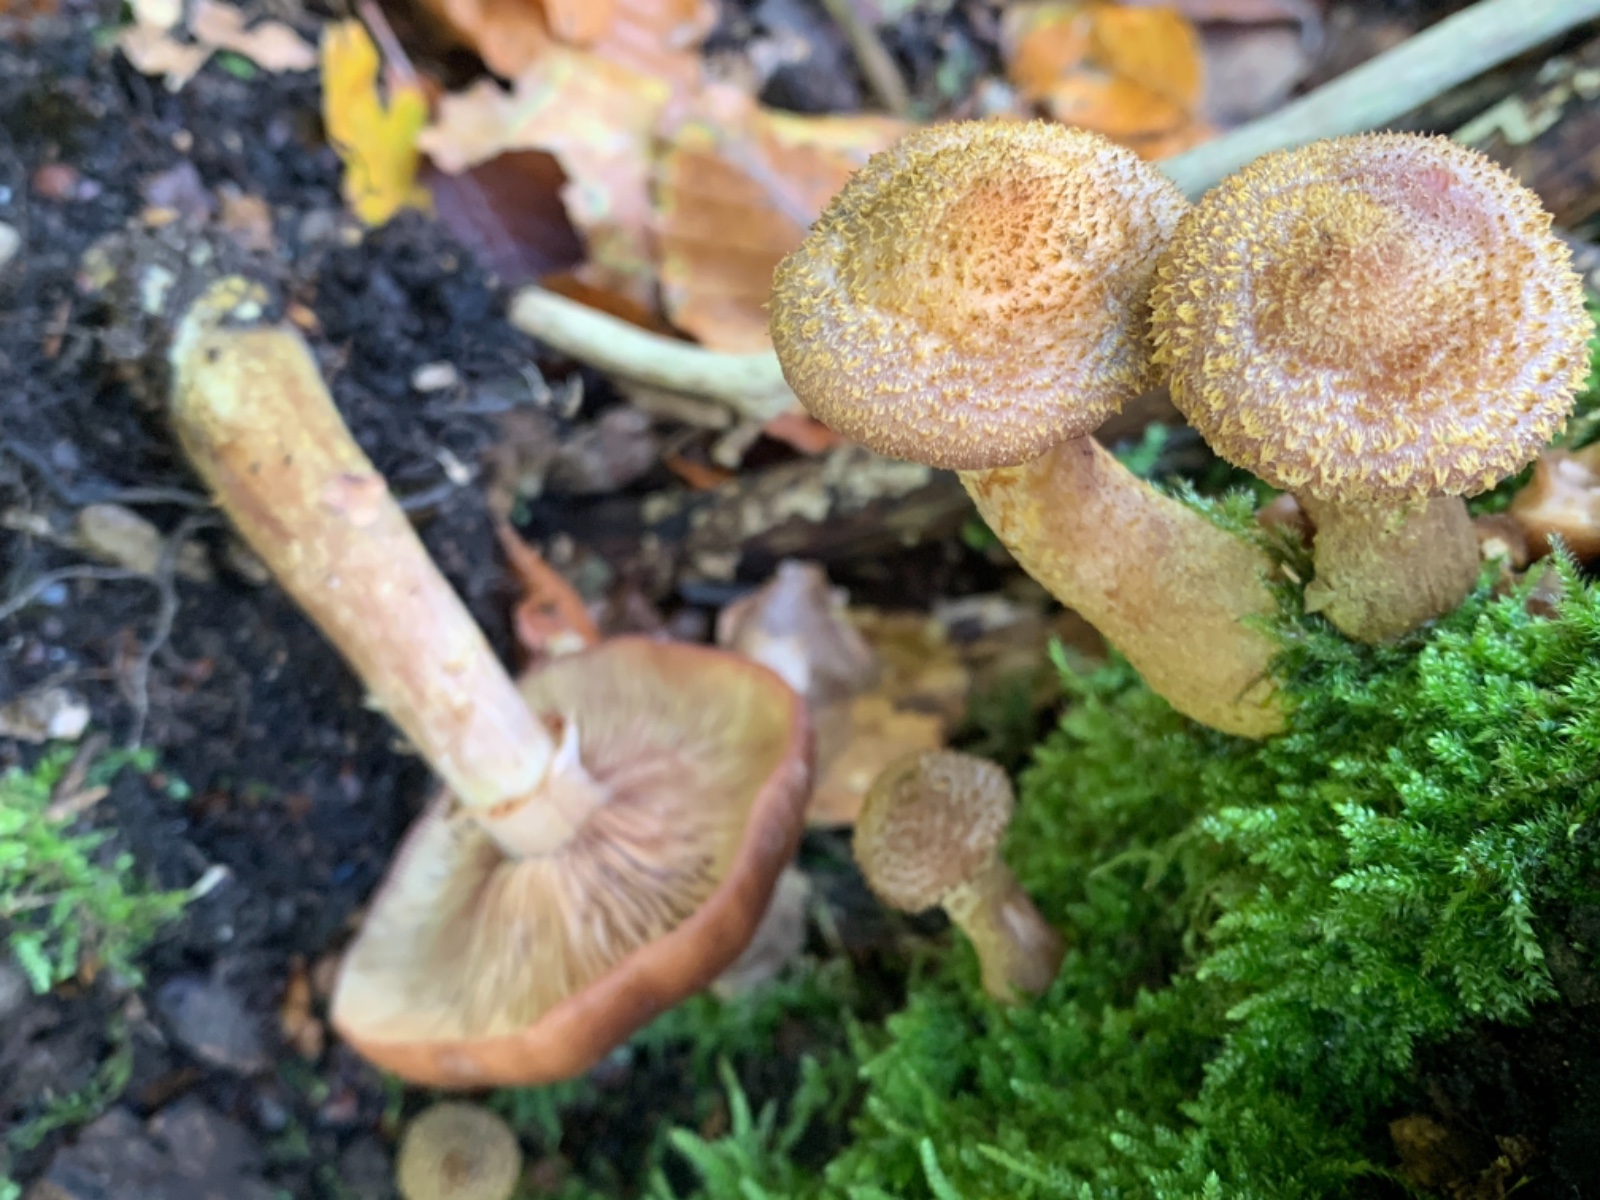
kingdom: Fungi
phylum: Basidiomycota
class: Agaricomycetes
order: Agaricales
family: Physalacriaceae
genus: Armillaria
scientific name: Armillaria lutea
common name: køllestokket honningsvamp
